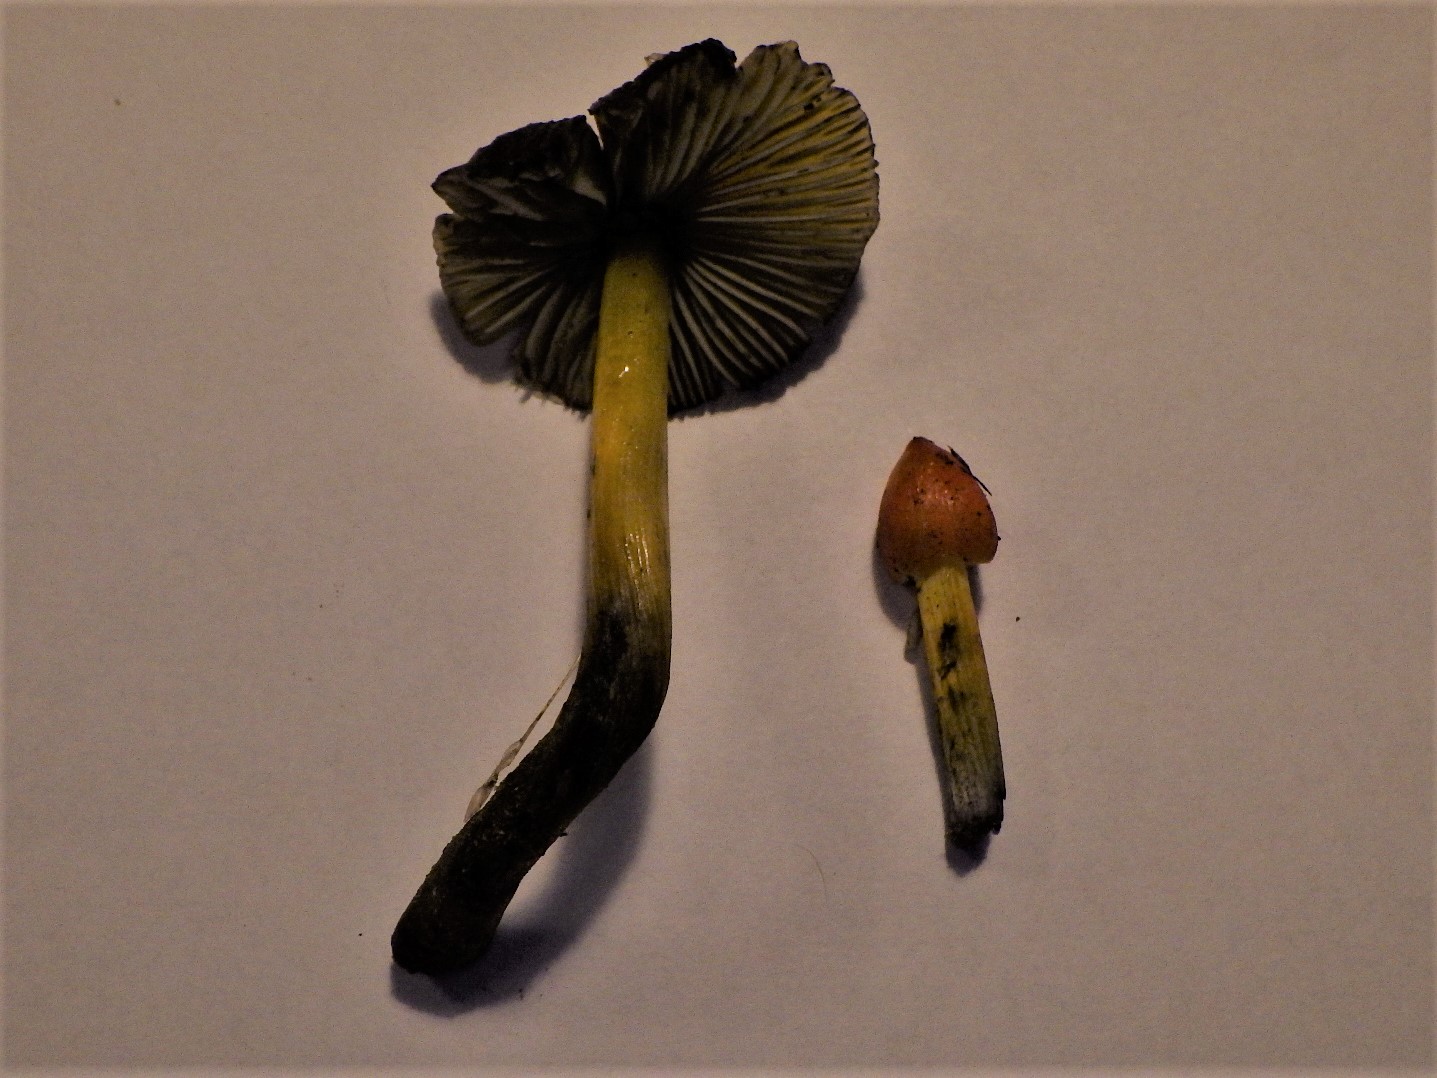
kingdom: Fungi
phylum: Basidiomycota
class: Agaricomycetes
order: Agaricales
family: Hygrophoraceae
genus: Hygrocybe
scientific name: Hygrocybe conica
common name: kegle-vokshat
